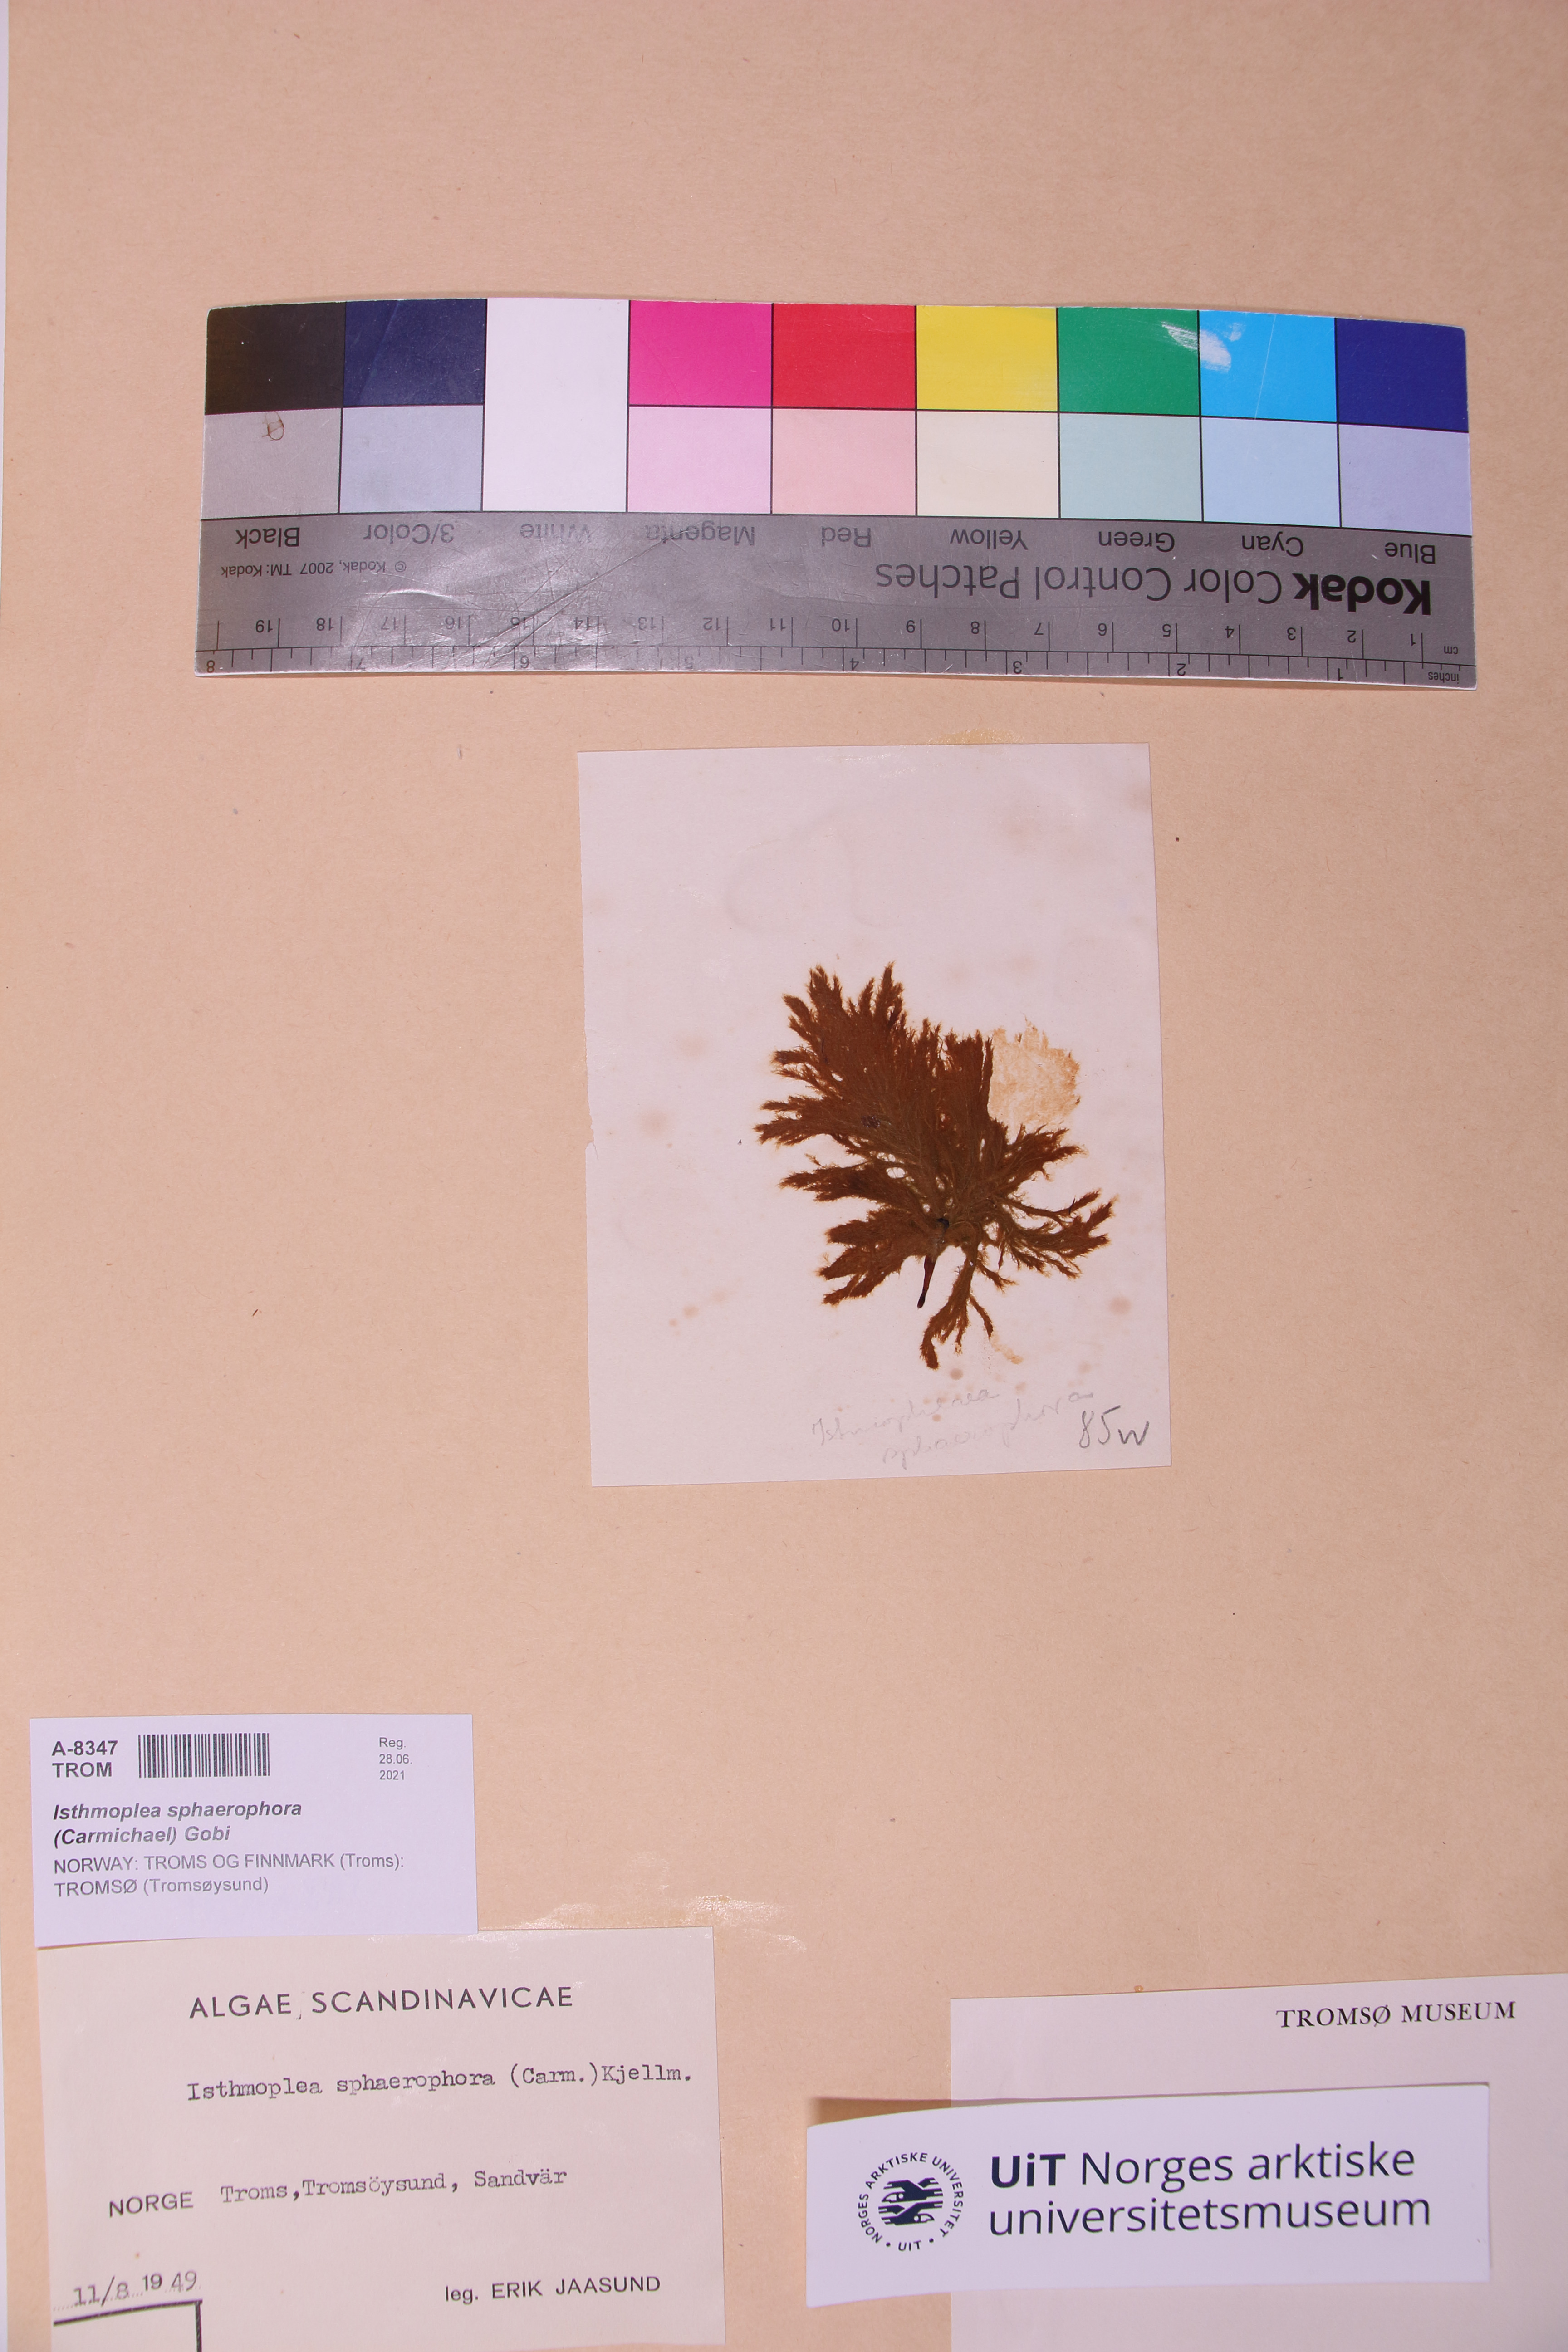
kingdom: Chromista
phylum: Ochrophyta
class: Phaeophyceae
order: Ectocarpales
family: Chordariaceae
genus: Isthmoplea
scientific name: Isthmoplea sphaerophora
